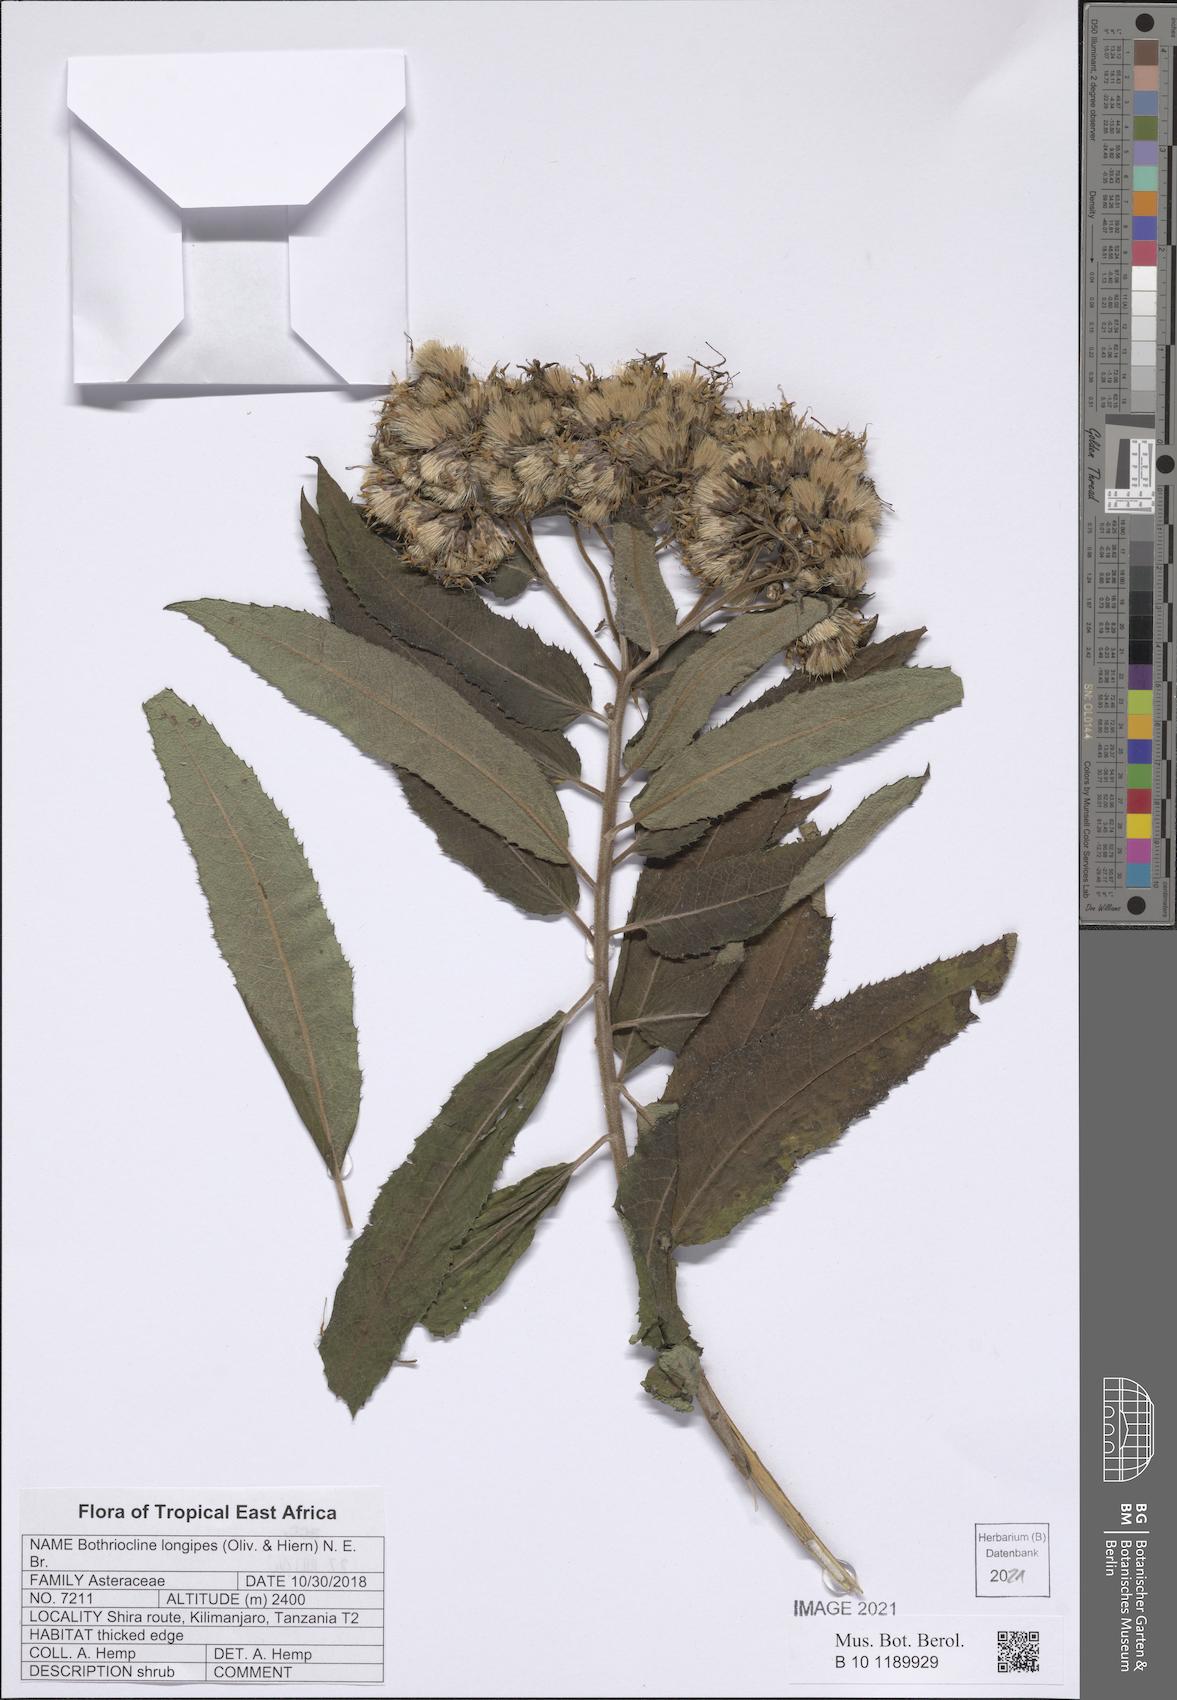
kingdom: Plantae
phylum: Tracheophyta
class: Magnoliopsida
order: Asterales
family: Asteraceae
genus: Bothriocline
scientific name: Bothriocline longipes
